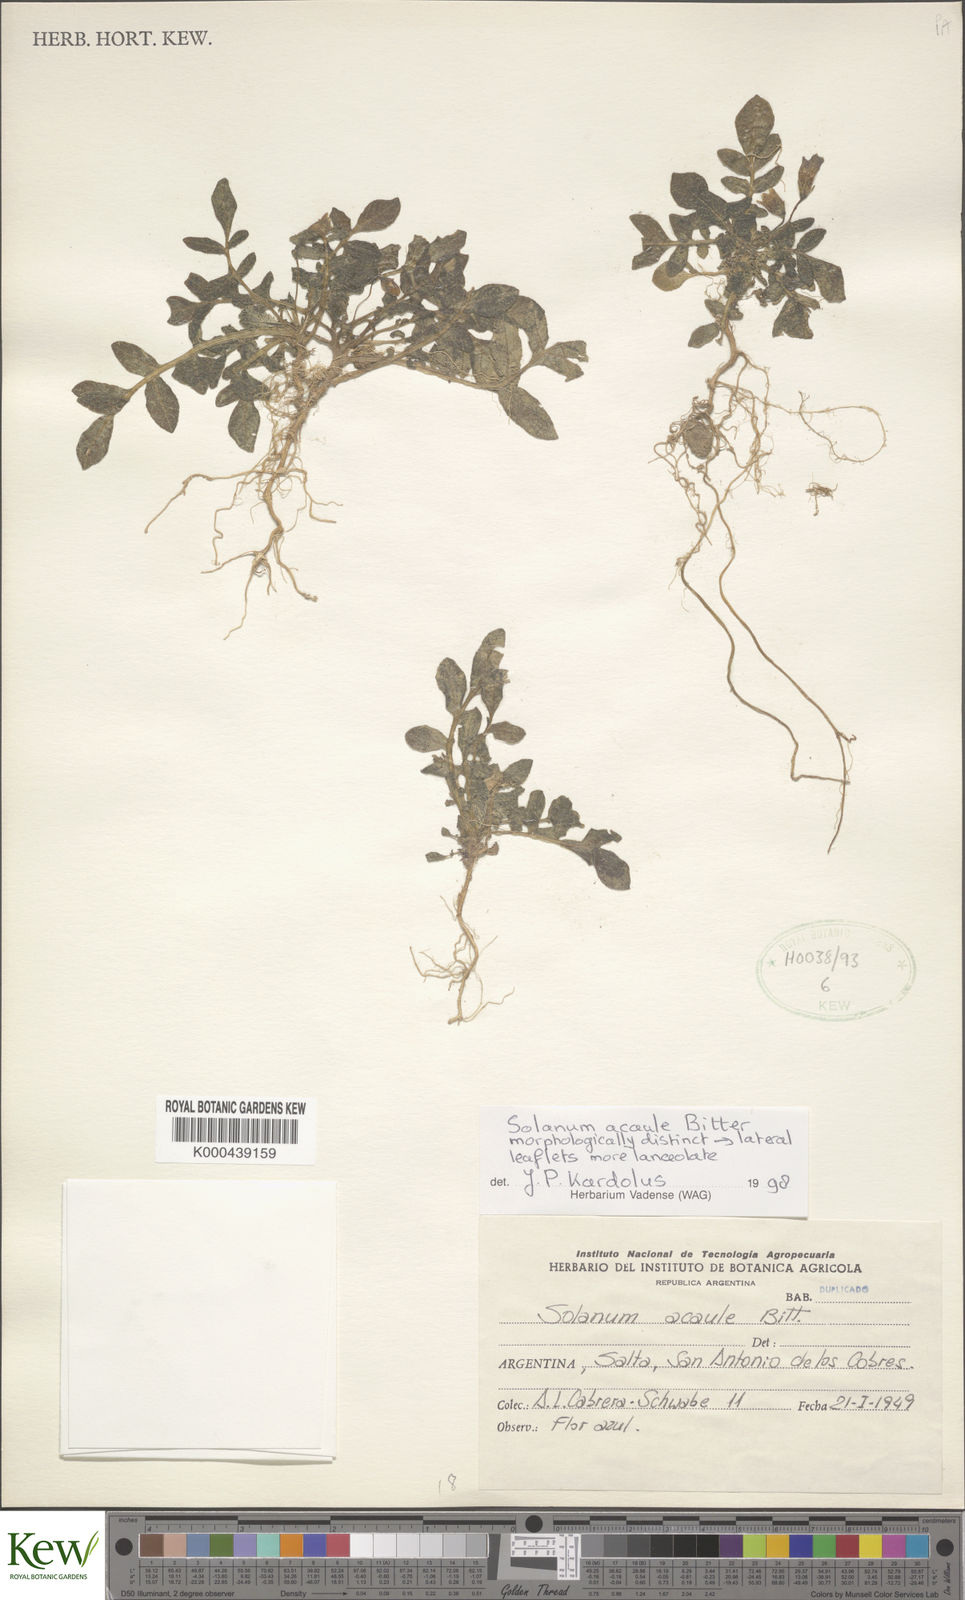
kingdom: Plantae
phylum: Tracheophyta
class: Magnoliopsida
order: Solanales
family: Solanaceae
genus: Solanum
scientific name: Solanum acaule
